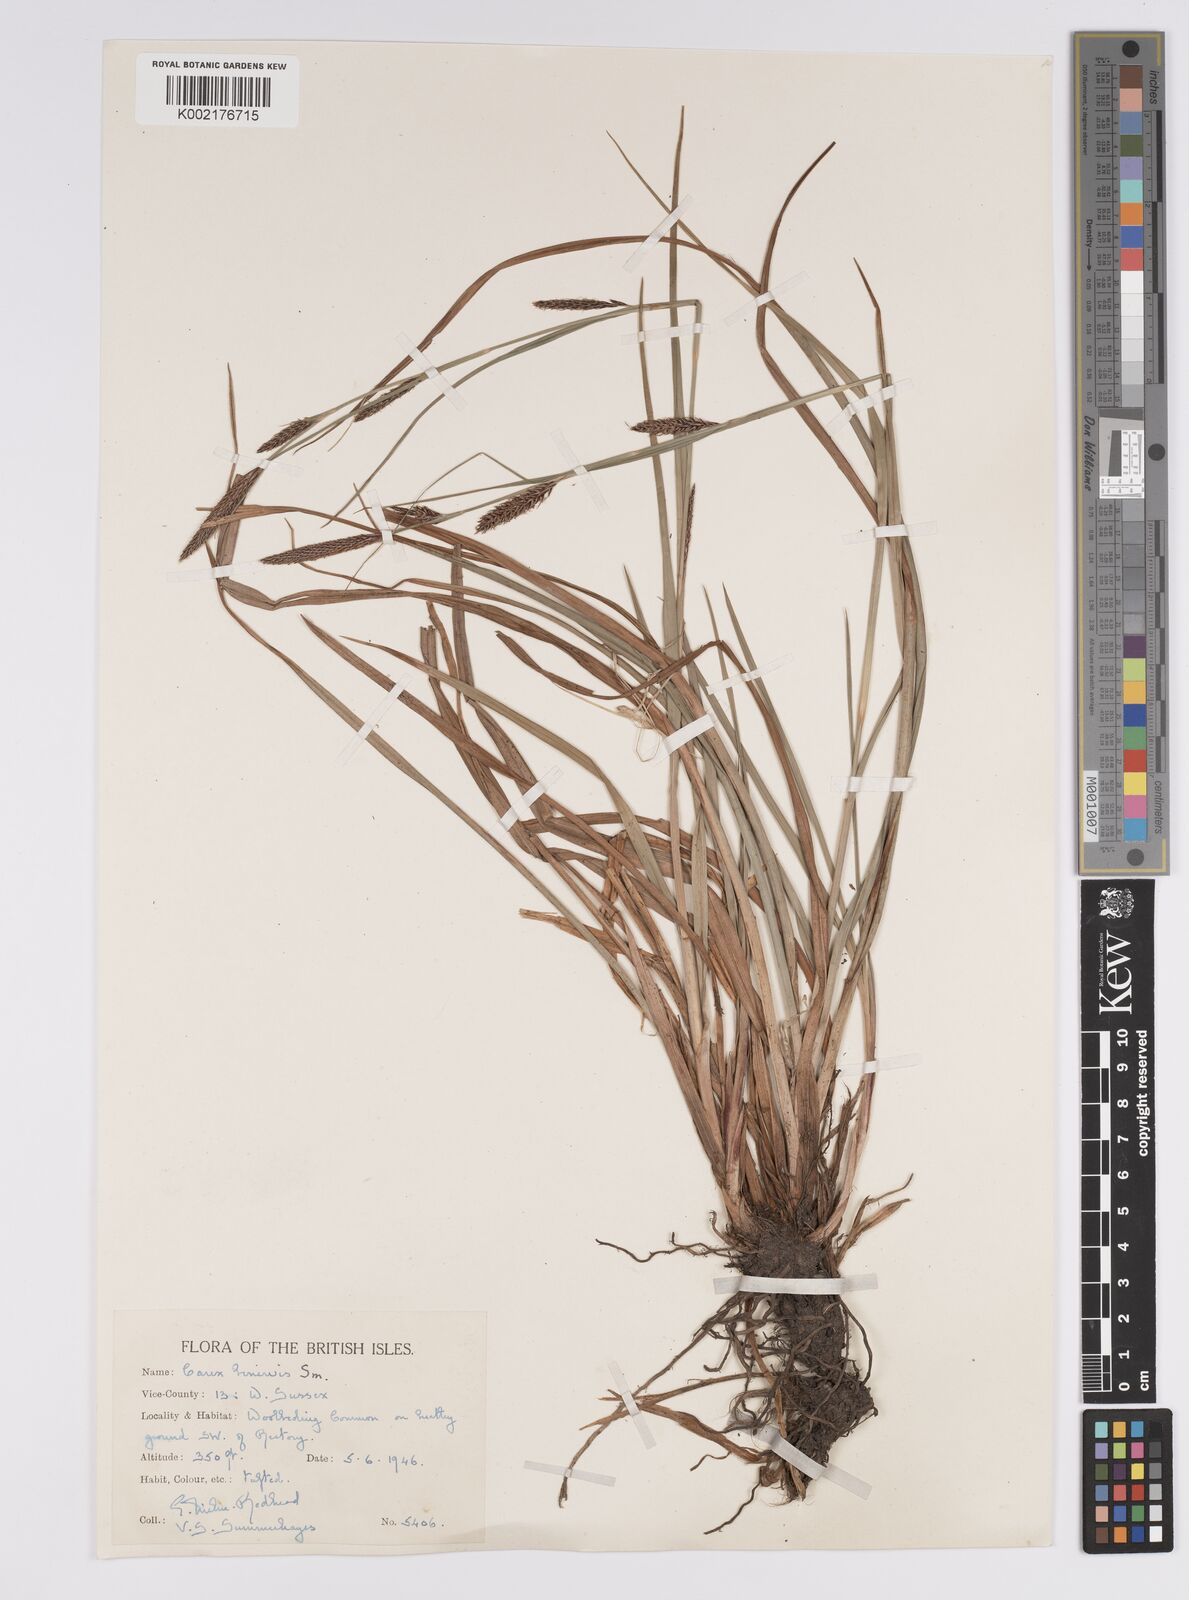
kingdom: Plantae
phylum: Tracheophyta
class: Liliopsida
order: Poales
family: Cyperaceae
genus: Carex
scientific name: Carex binervis
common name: Green-ribbed sedge
